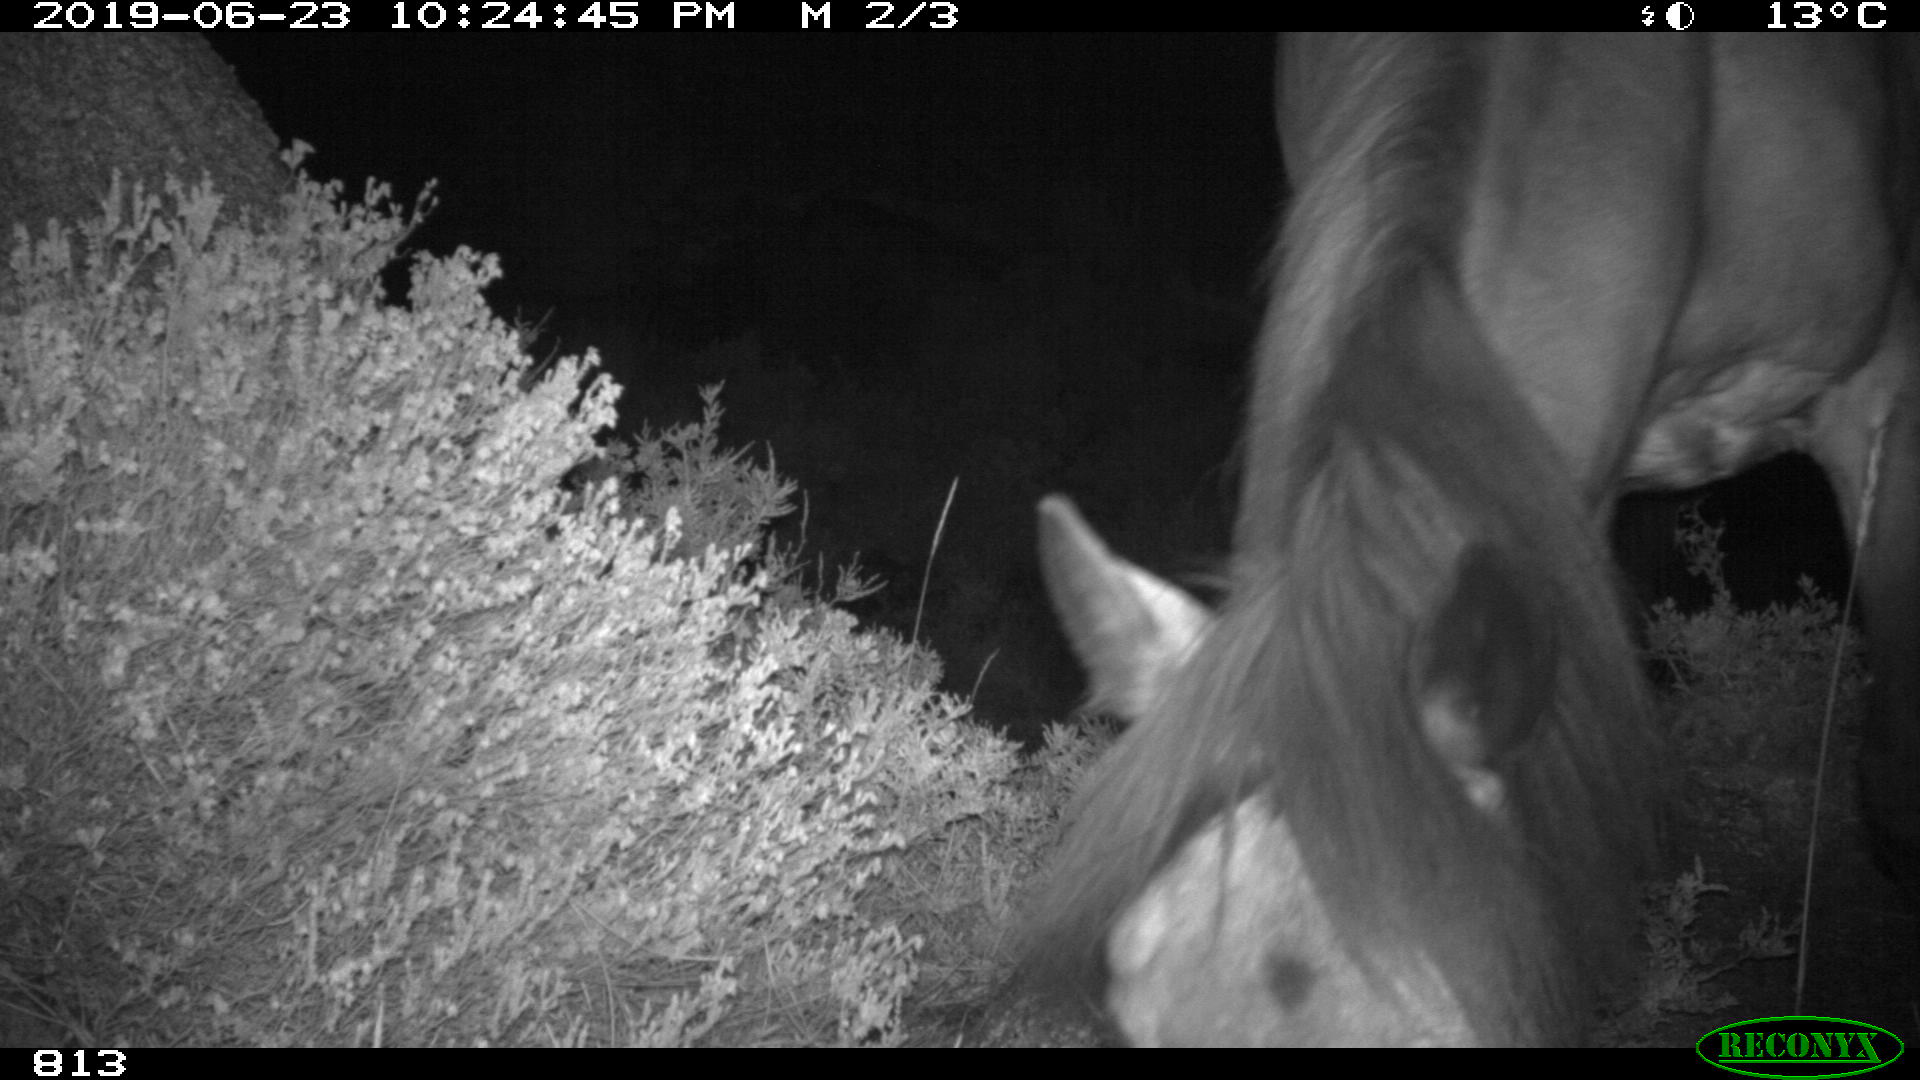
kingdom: Animalia
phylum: Chordata
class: Mammalia
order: Perissodactyla
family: Equidae
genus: Equus
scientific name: Equus caballus
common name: Horse
